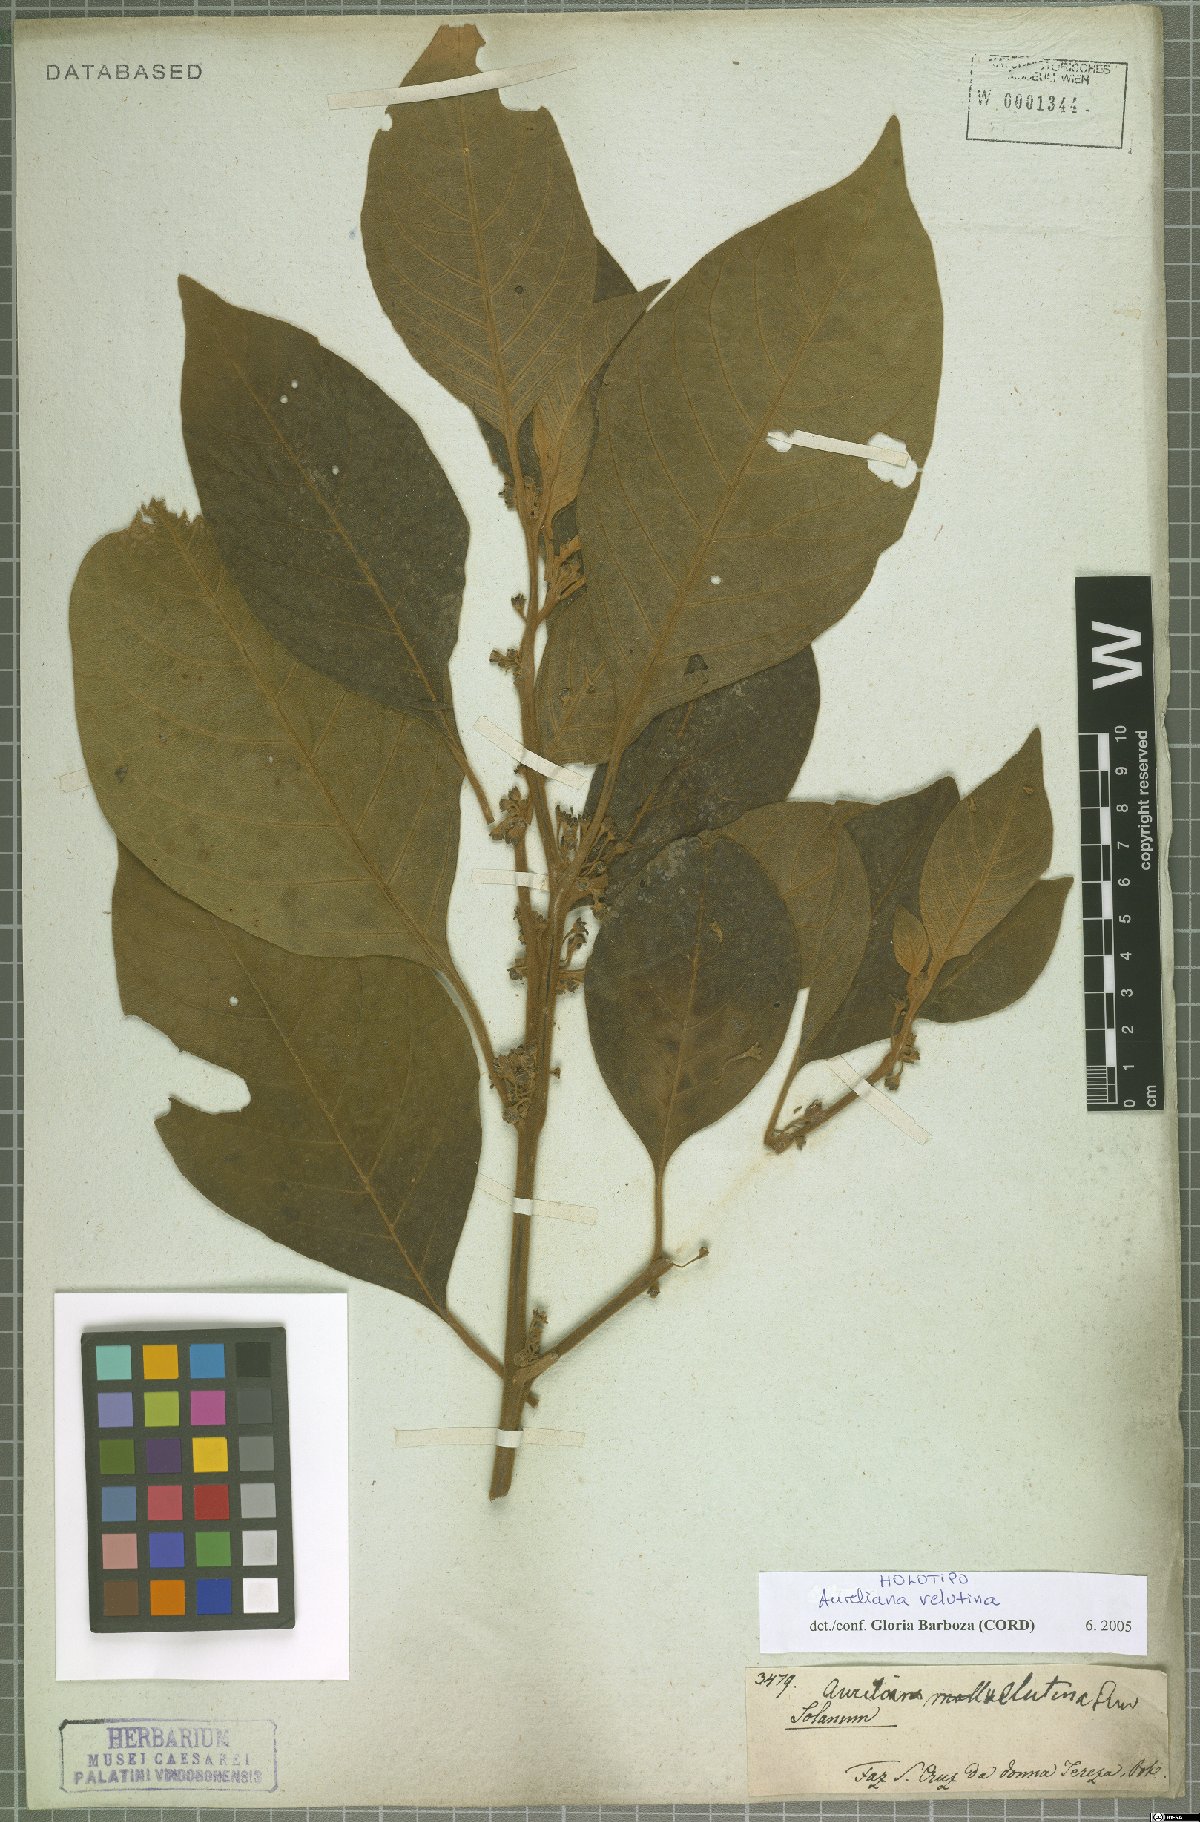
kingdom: Plantae
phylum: Tracheophyta
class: Magnoliopsida
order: Solanales
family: Solanaceae
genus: Athenaea
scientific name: Athenaea velutina
